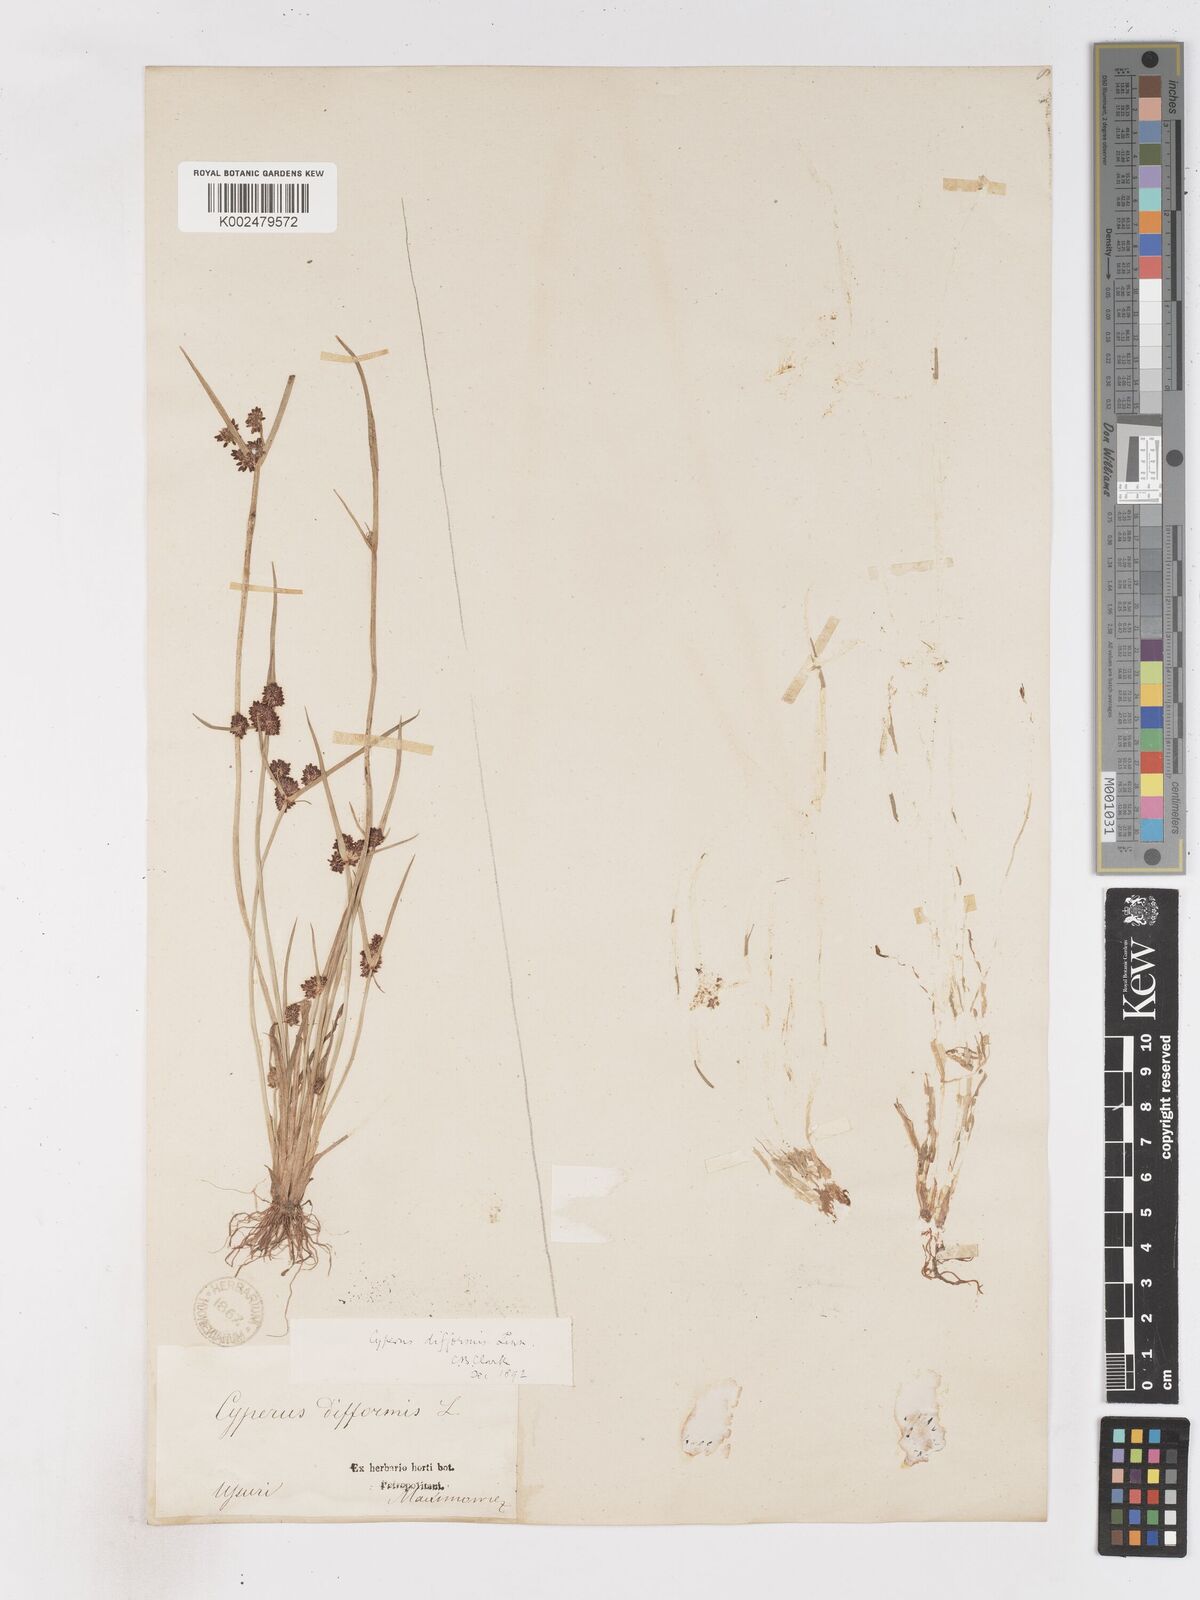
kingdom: Plantae
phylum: Tracheophyta
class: Liliopsida
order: Poales
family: Cyperaceae
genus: Cyperus
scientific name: Cyperus difformis
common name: Variable flatsedge
